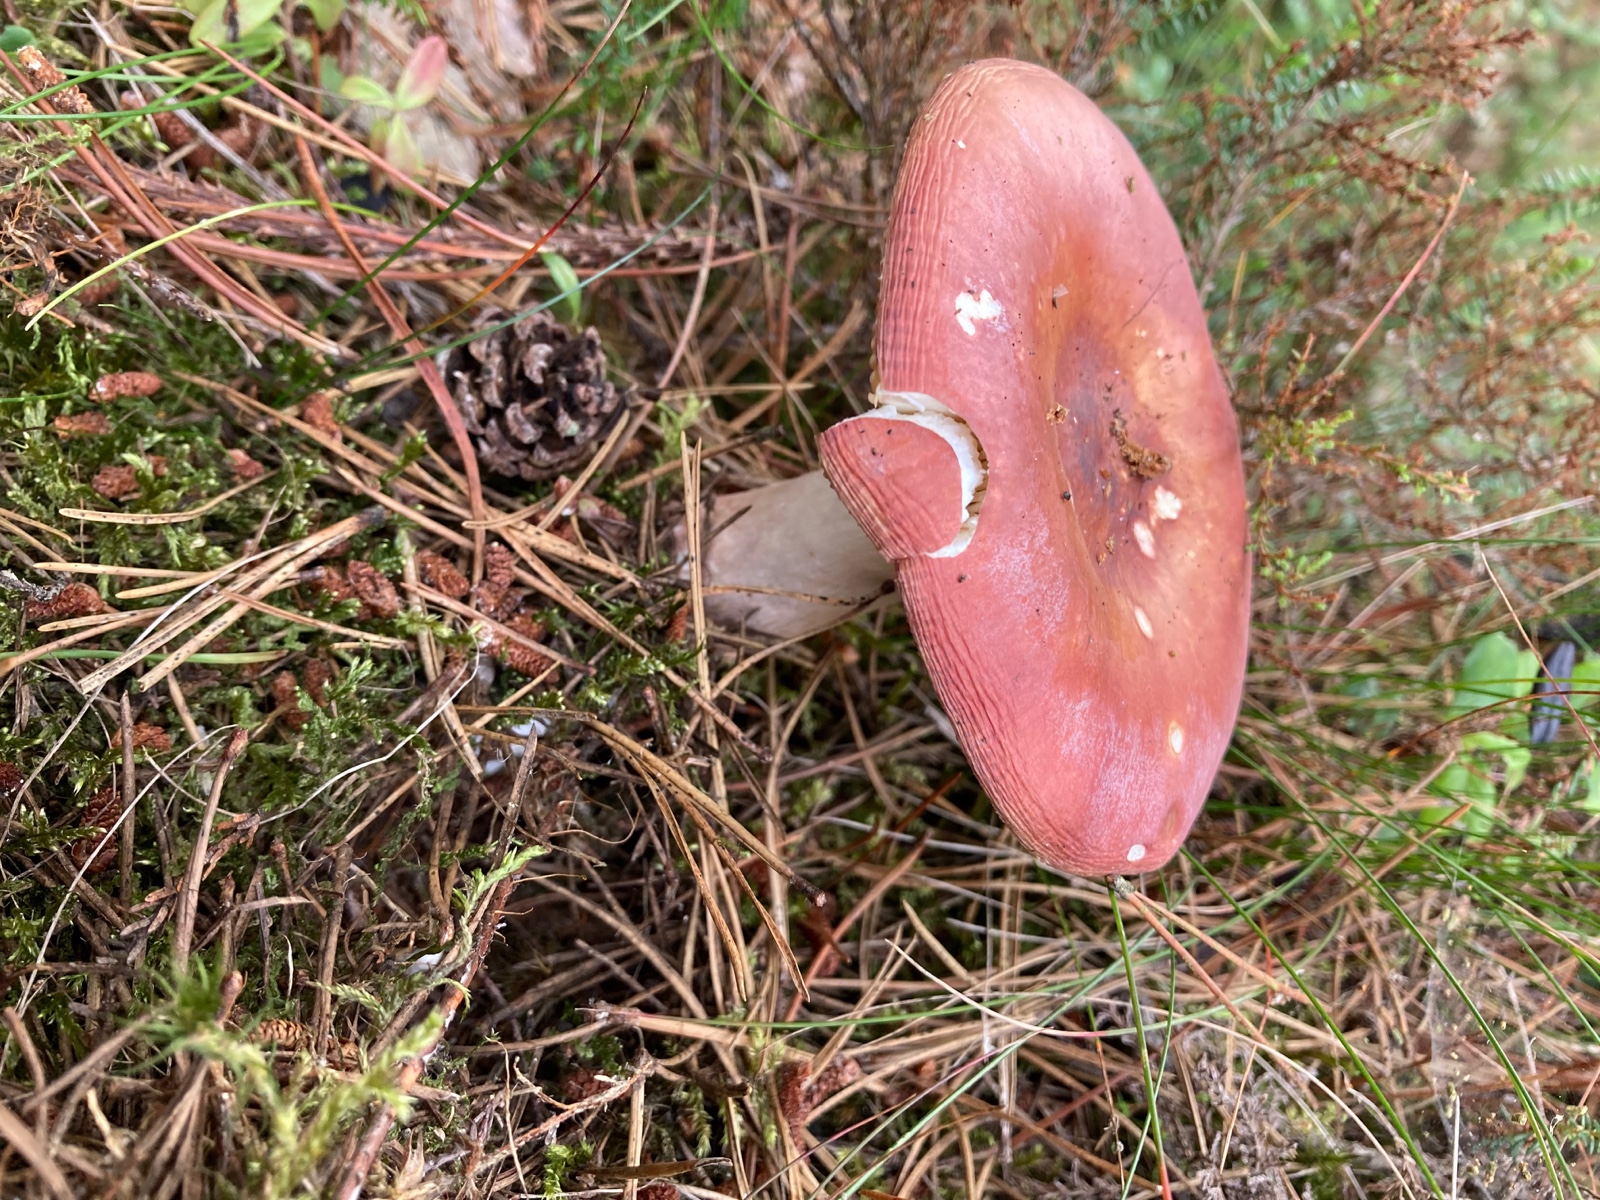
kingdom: Fungi
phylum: Basidiomycota
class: Agaricomycetes
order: Russulales
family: Russulaceae
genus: Russula
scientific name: Russula
